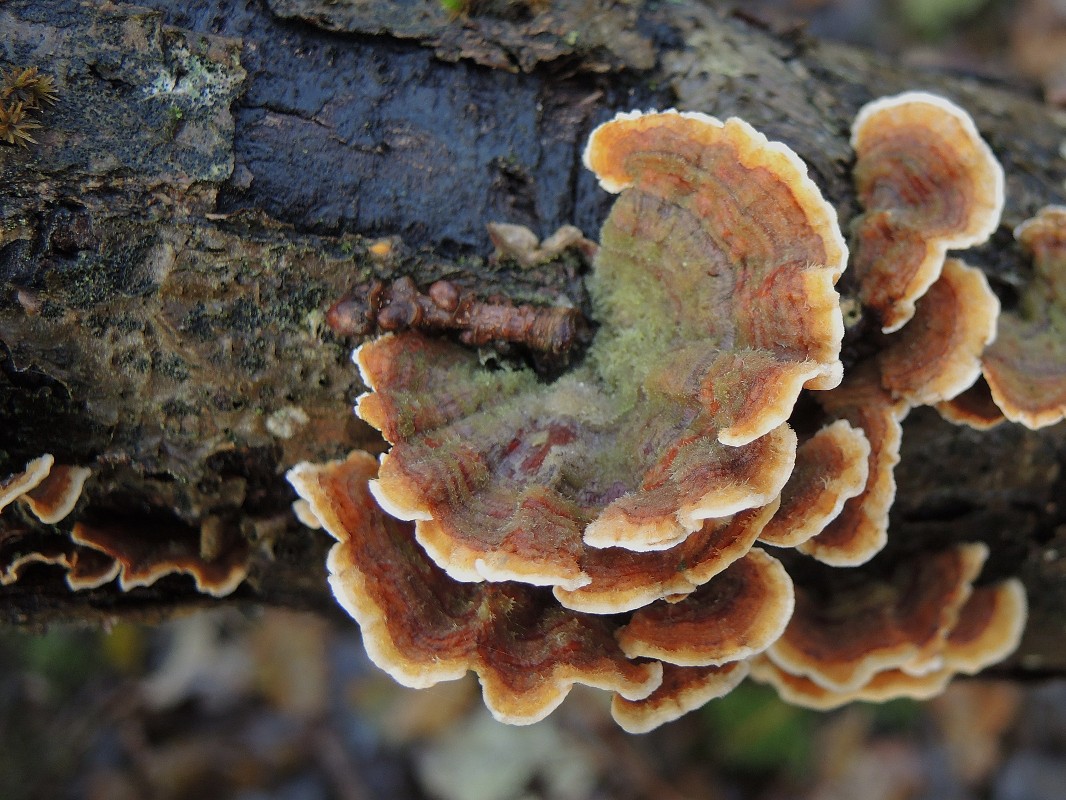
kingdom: Fungi
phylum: Basidiomycota
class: Agaricomycetes
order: Russulales
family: Stereaceae
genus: Stereum
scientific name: Stereum subtomentosum
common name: smuk lædersvamp
